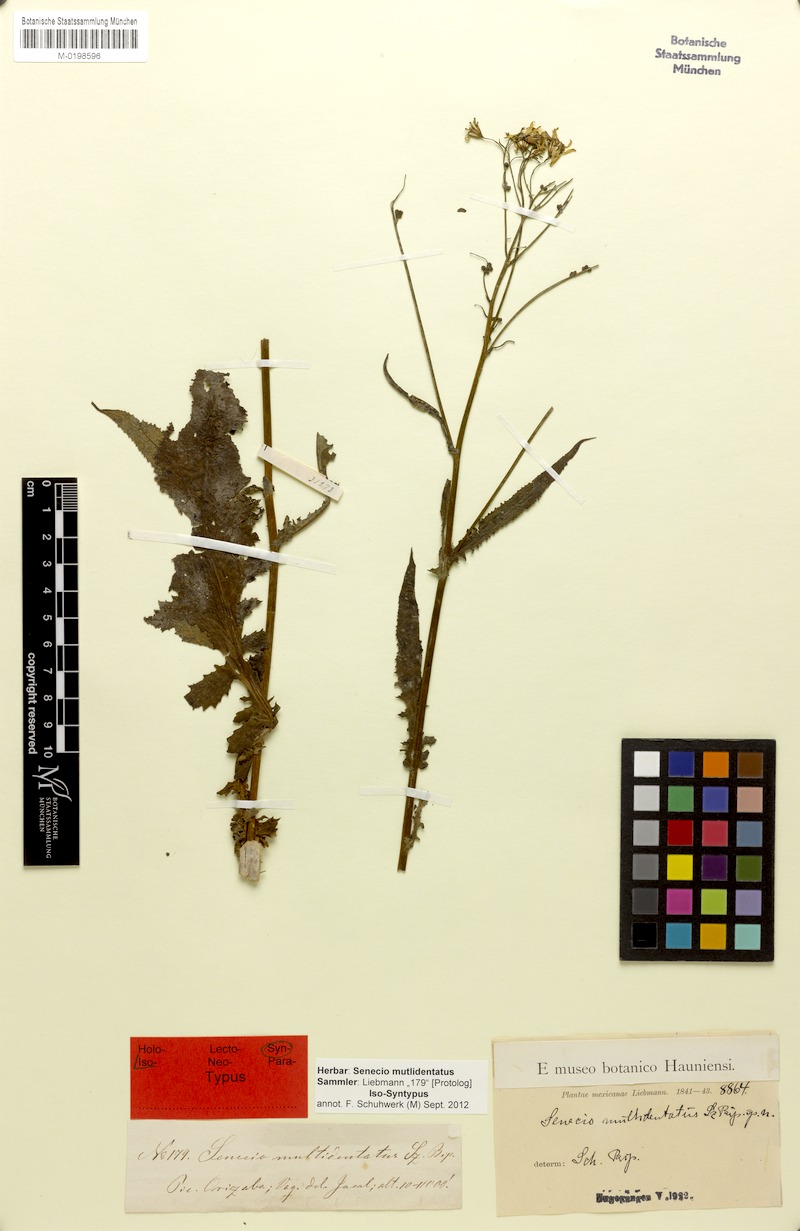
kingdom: Plantae
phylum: Tracheophyta
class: Magnoliopsida
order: Asterales
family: Asteraceae
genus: Senecio
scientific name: Senecio multidentatus
